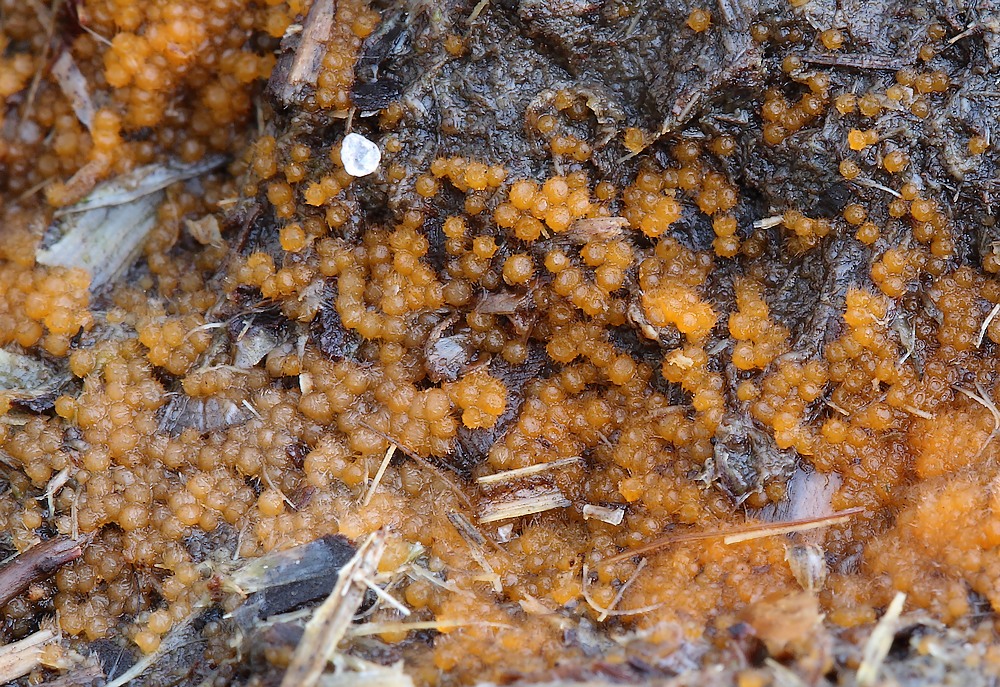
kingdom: Fungi
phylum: Ascomycota
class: Pezizomycetes
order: Pezizales
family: Ascodesmidaceae
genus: Lasiobolus
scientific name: Lasiobolus
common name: øjebæger
